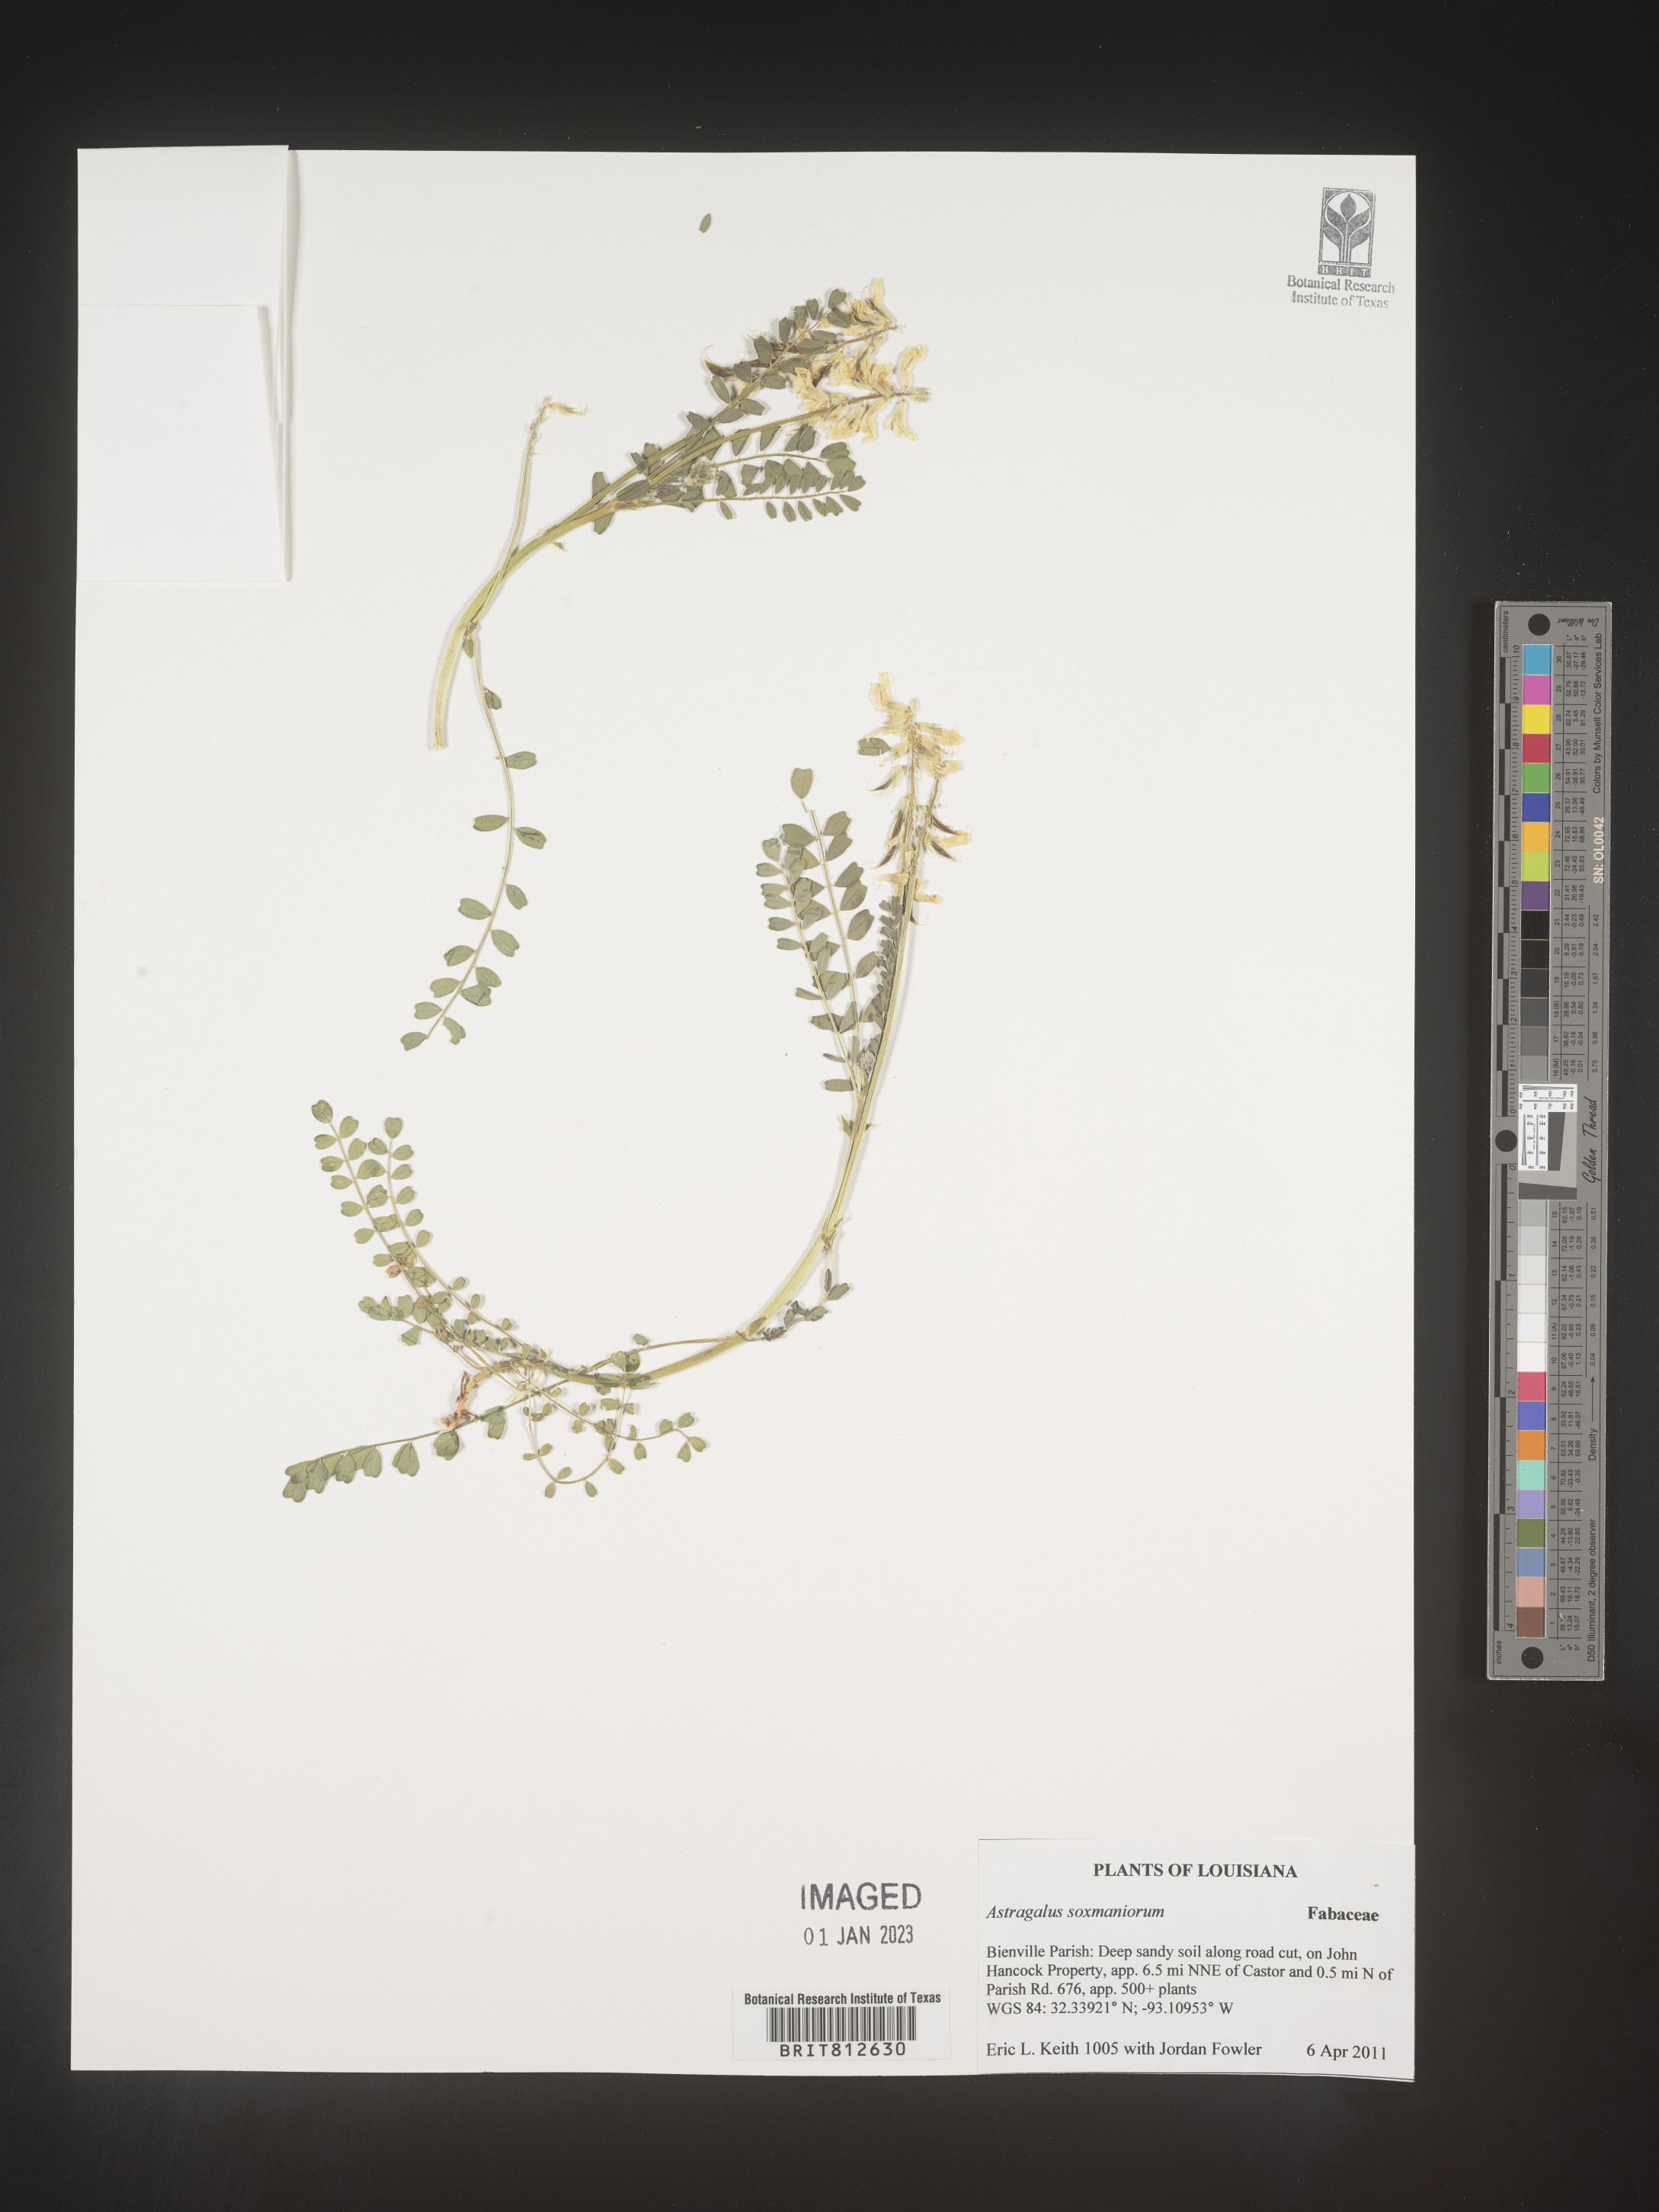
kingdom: Plantae
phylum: Tracheophyta
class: Magnoliopsida
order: Fabales
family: Fabaceae
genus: Astragalus
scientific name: Astragalus
